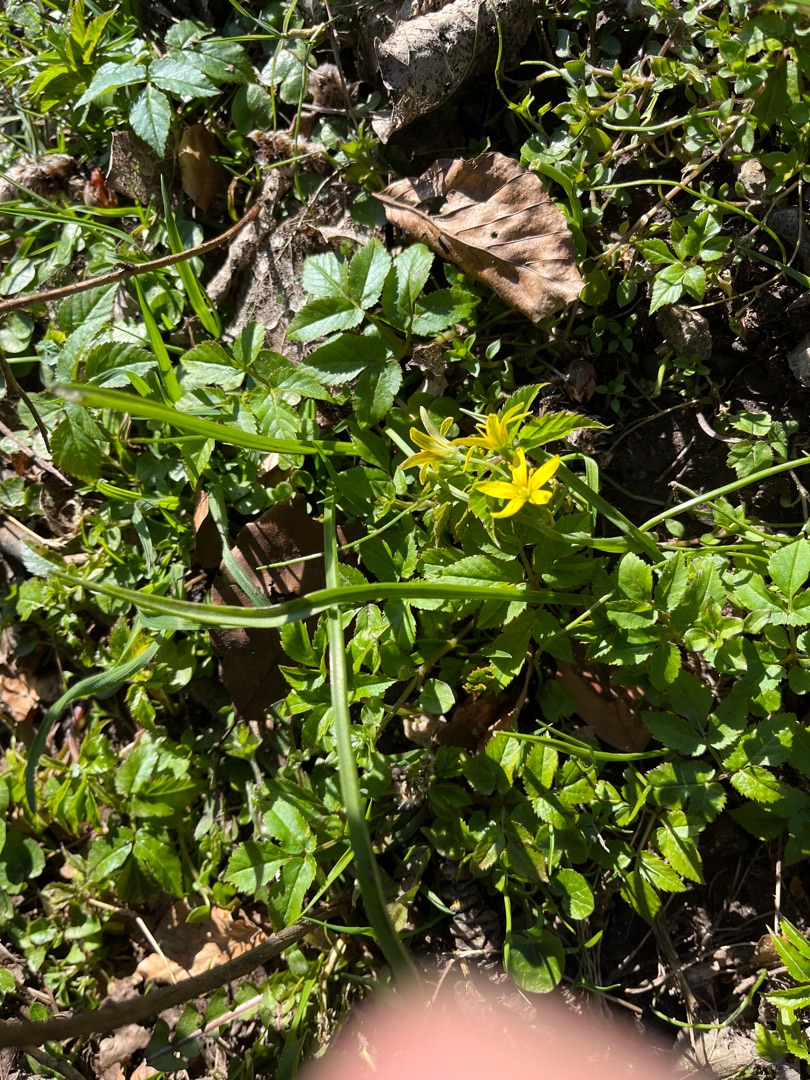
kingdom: Plantae
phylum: Tracheophyta
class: Liliopsida
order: Liliales
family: Liliaceae
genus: Gagea
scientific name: Gagea lutea
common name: Almindelig guldstjerne
